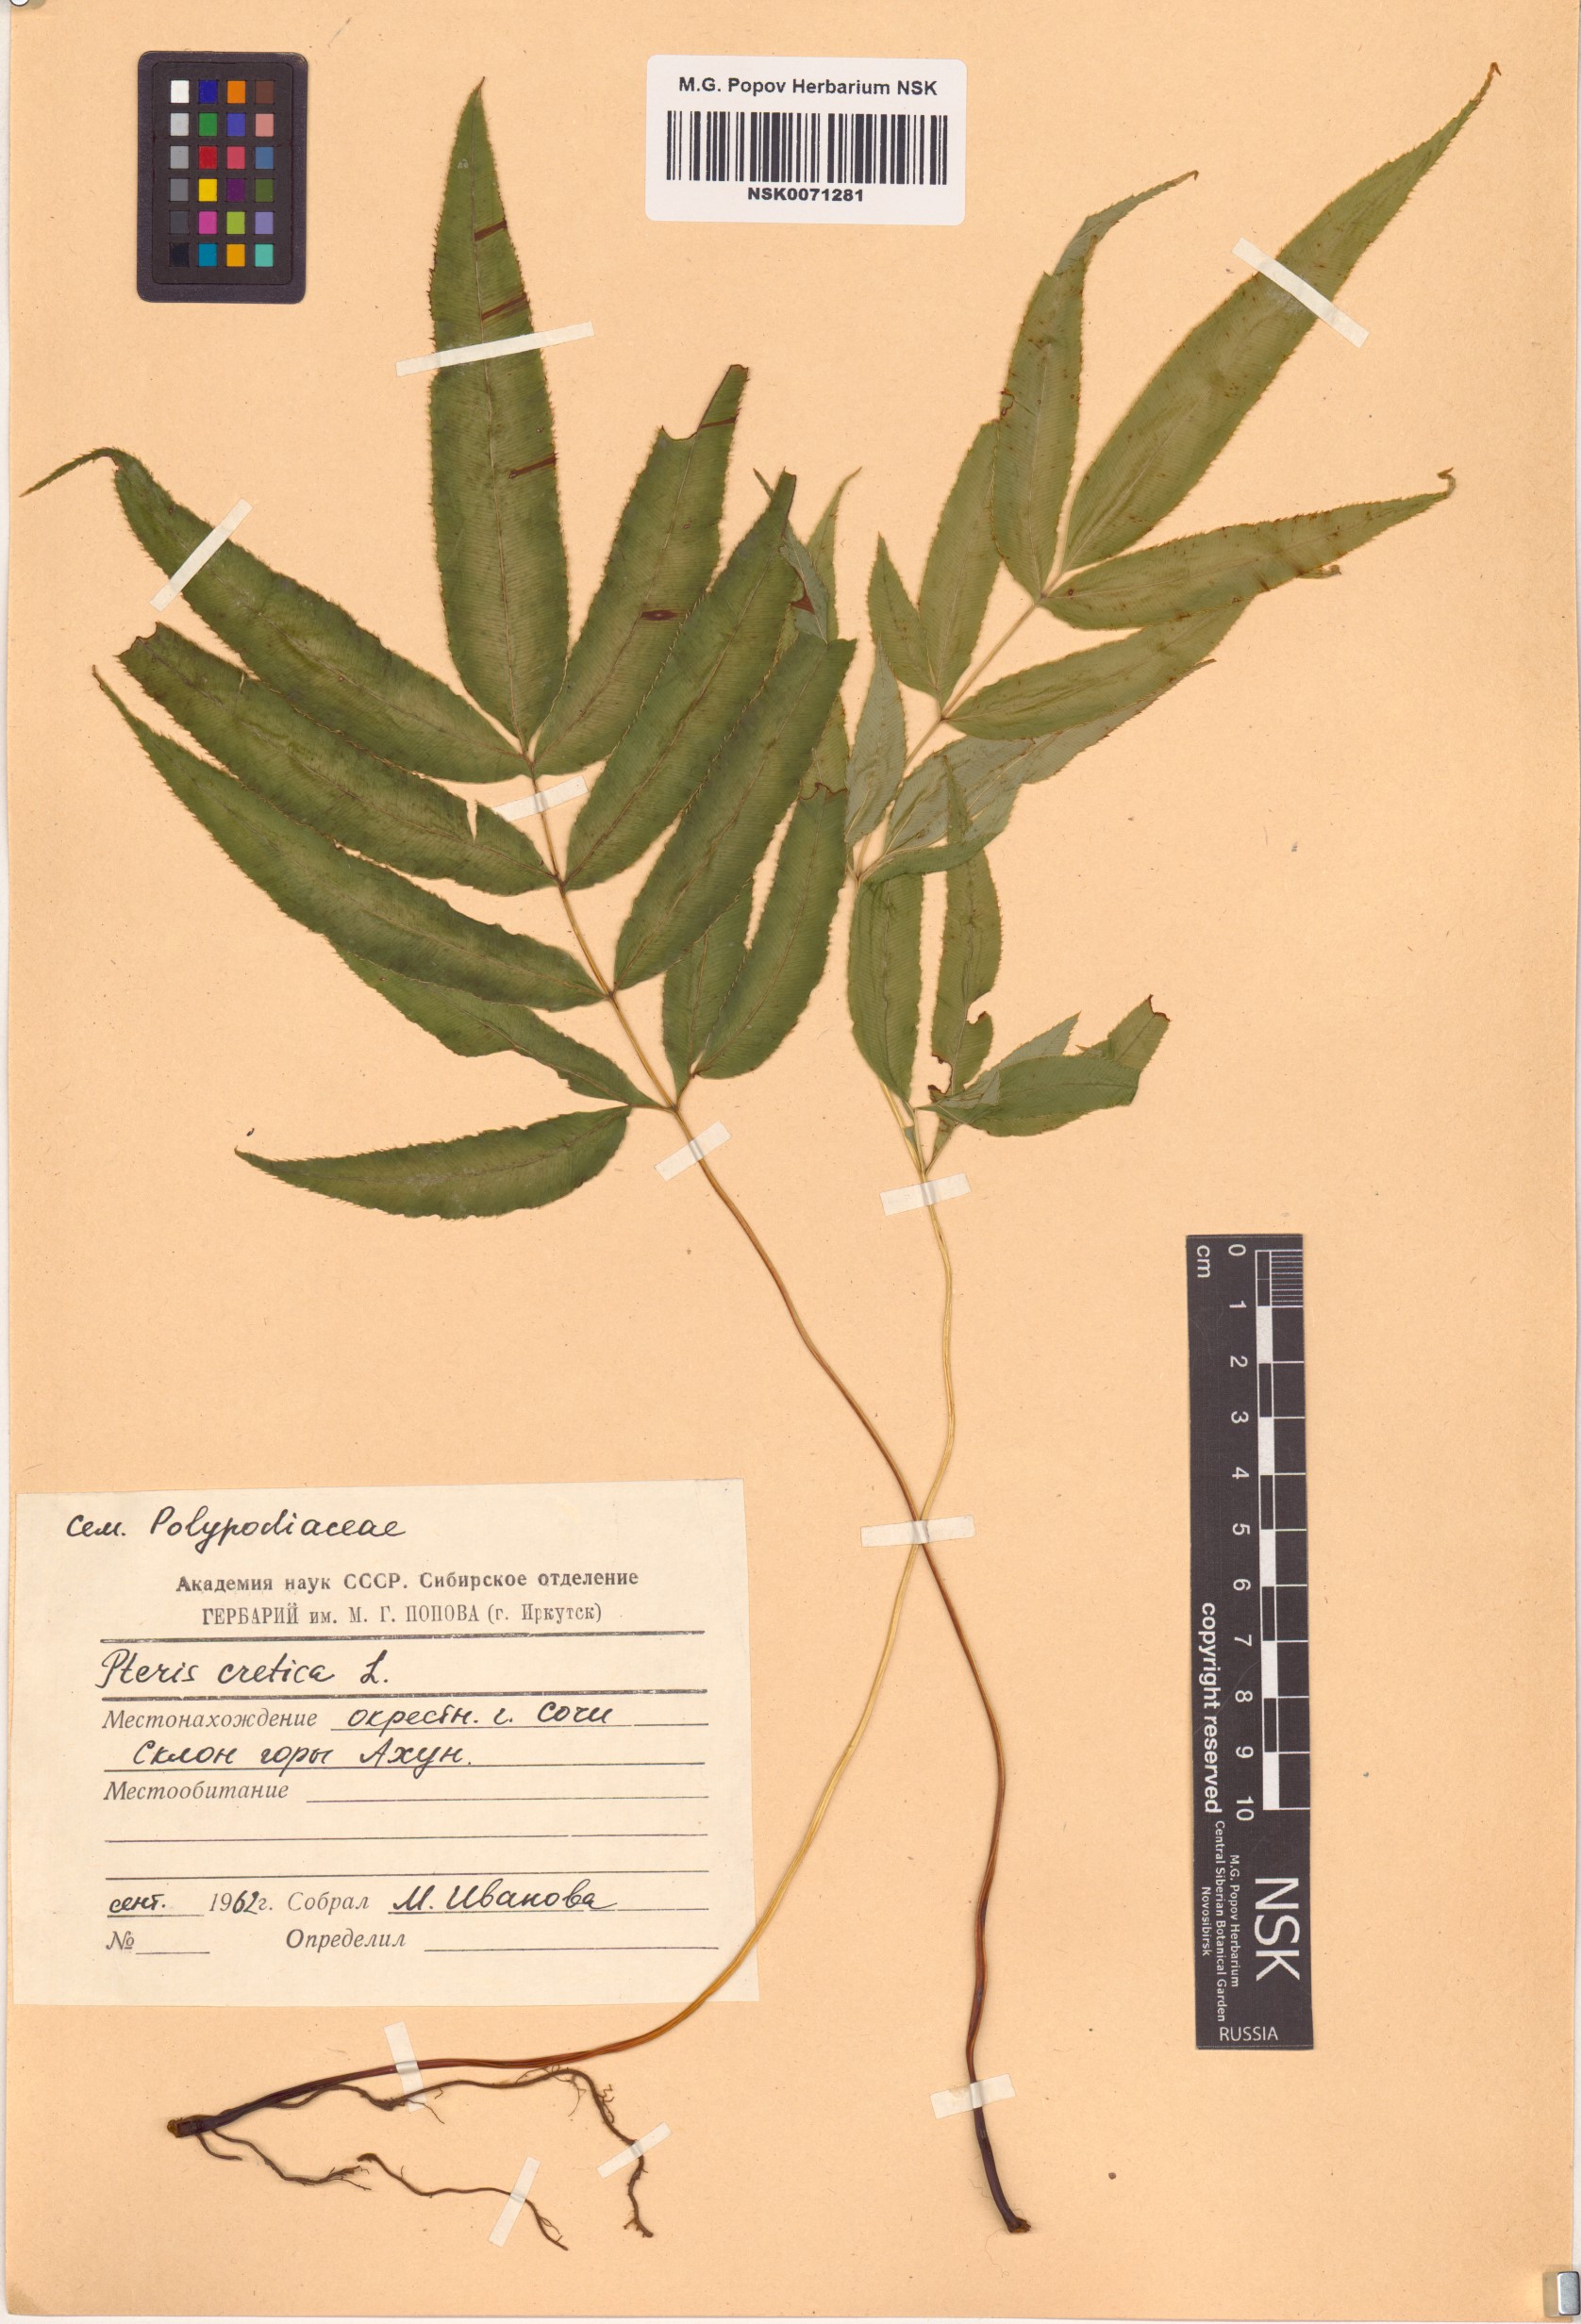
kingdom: Plantae
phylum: Tracheophyta
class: Polypodiopsida
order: Polypodiales
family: Pteridaceae
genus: Pteris
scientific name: Pteris cretica
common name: Ribbon fern
